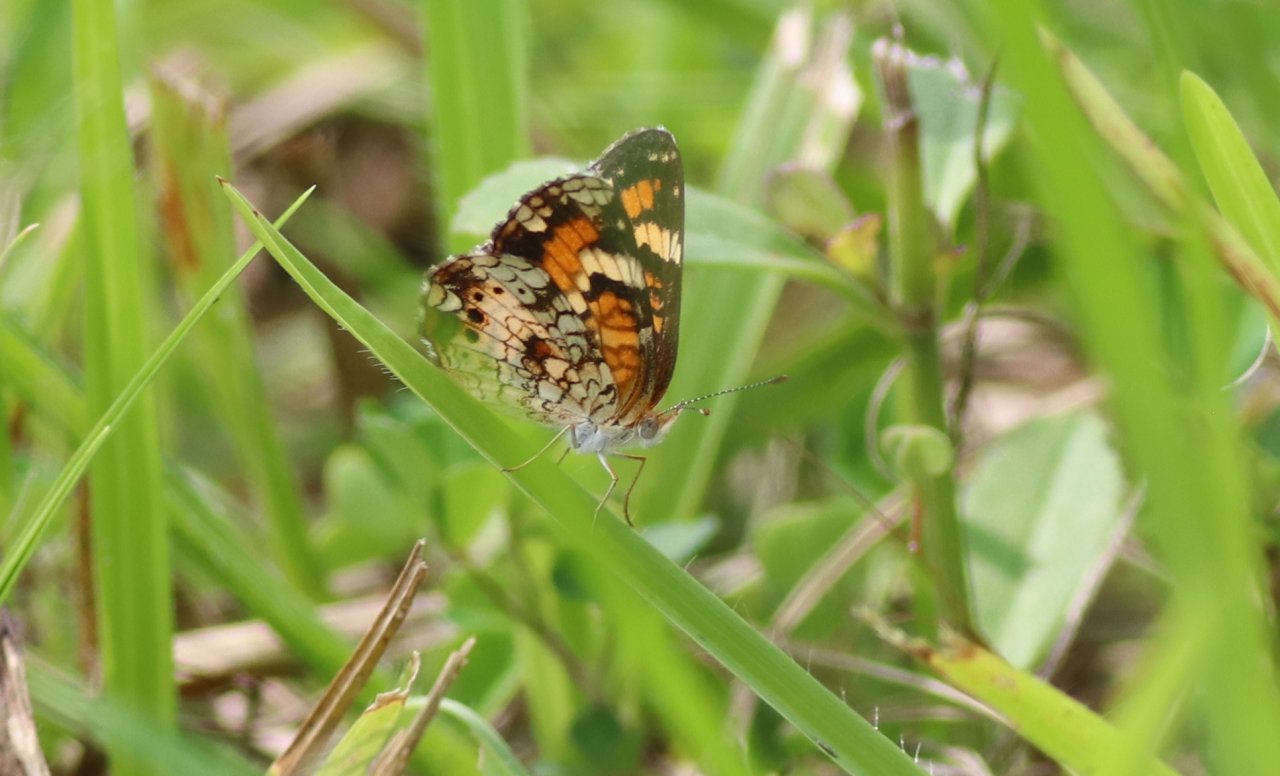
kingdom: Animalia
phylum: Arthropoda
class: Insecta
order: Lepidoptera
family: Nymphalidae
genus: Phyciodes
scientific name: Phyciodes phaon
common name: Phaon Crescent
